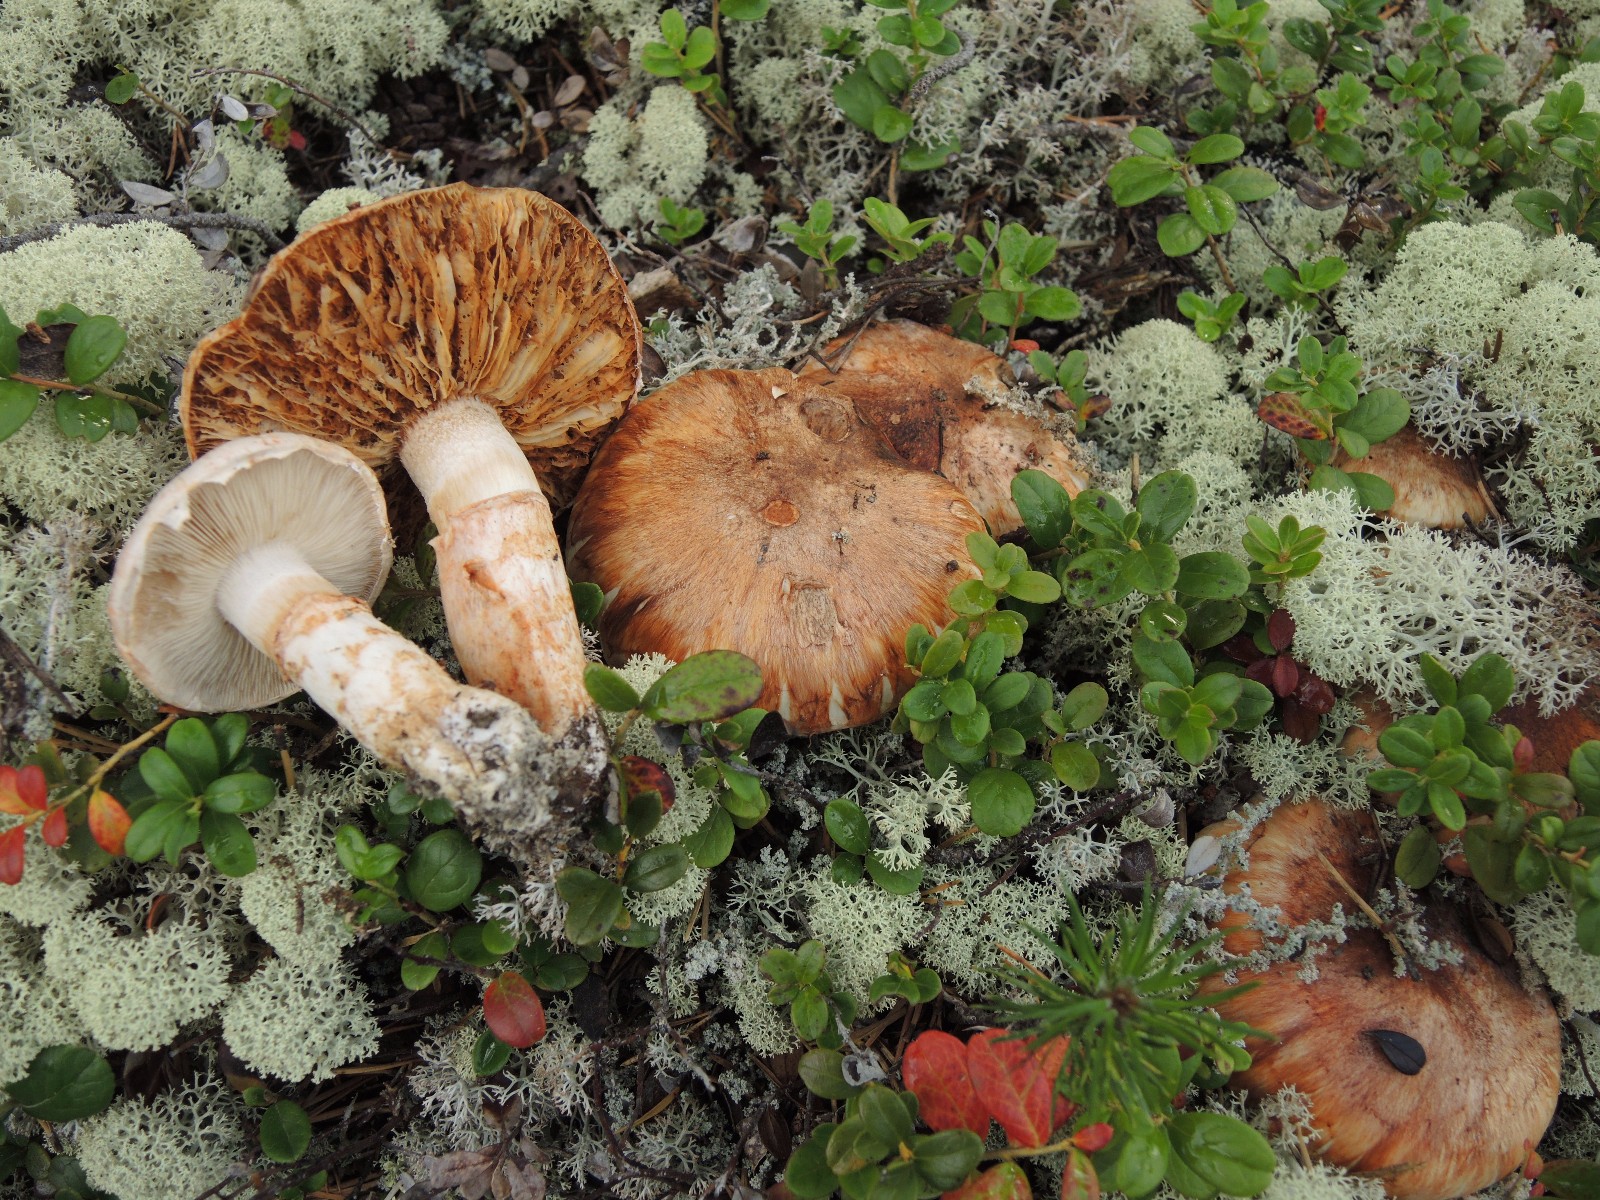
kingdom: Fungi
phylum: Basidiomycota
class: Agaricomycetes
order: Agaricales
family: Tricholomataceae
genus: Tricholoma
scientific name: Tricholoma focale
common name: halsbånd-ridderhat
